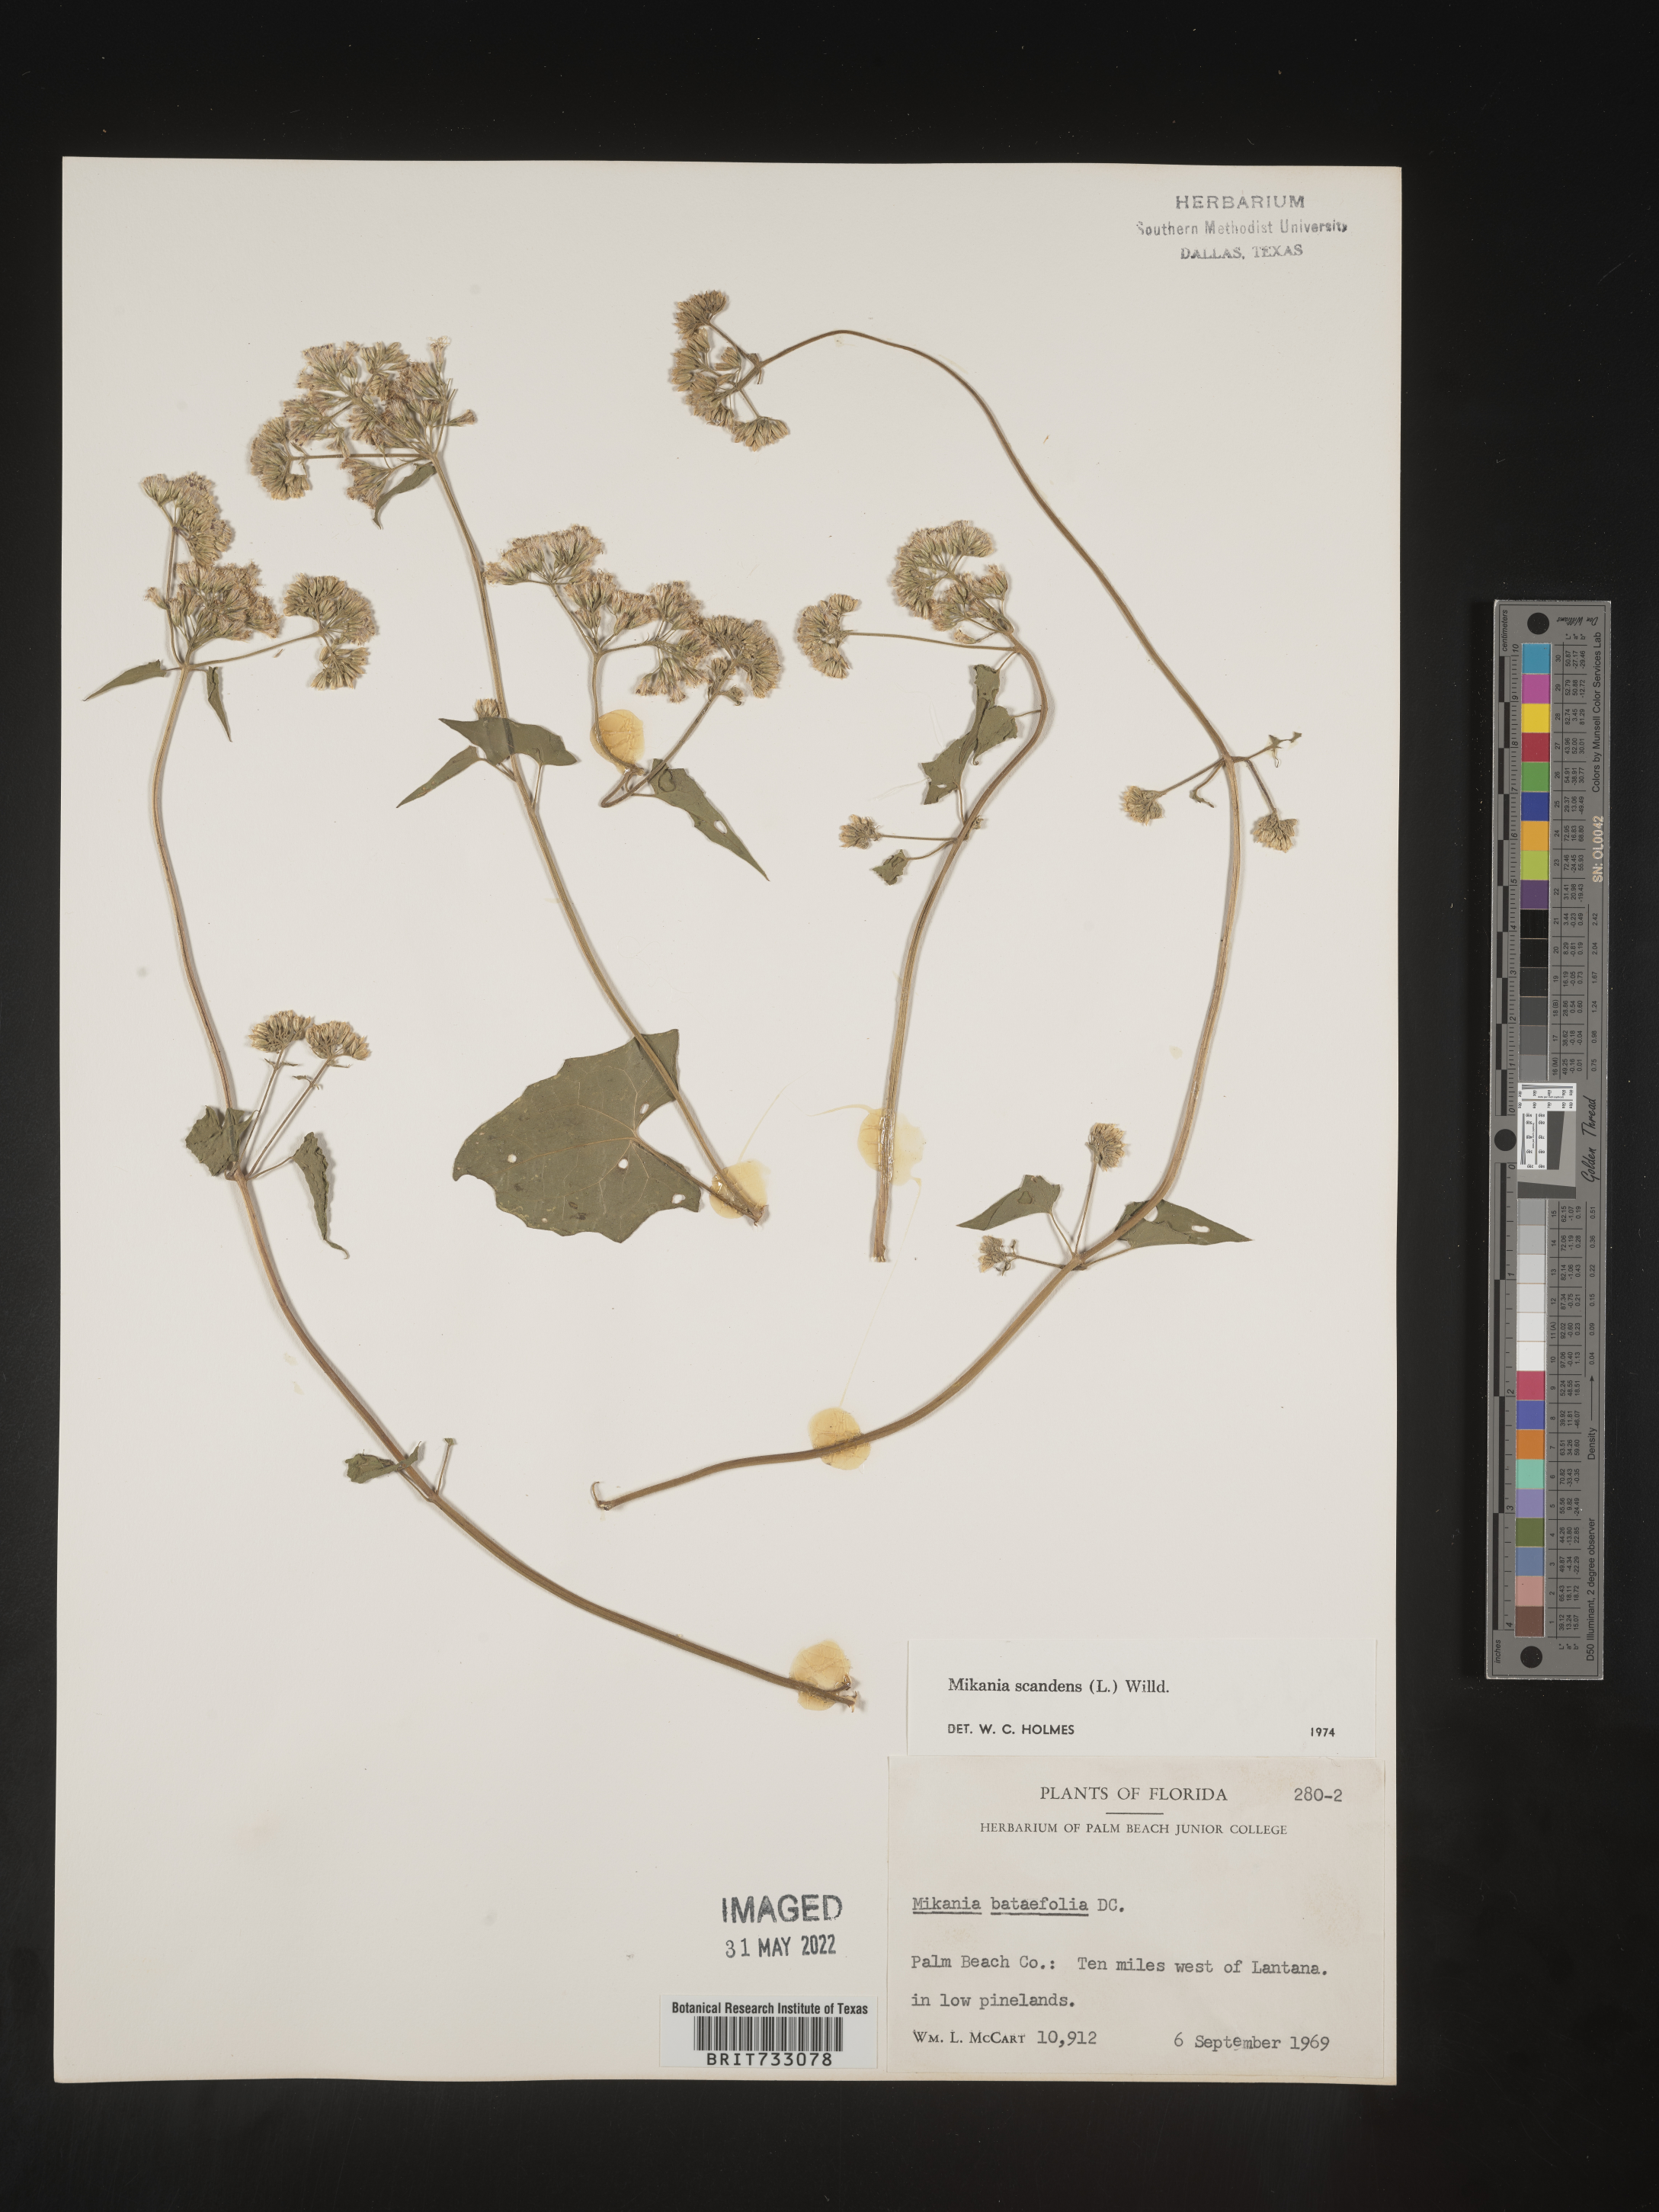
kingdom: Plantae
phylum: Tracheophyta
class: Magnoliopsida
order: Asterales
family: Asteraceae
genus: Mikania
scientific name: Mikania scandens
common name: Climbing hempvine
